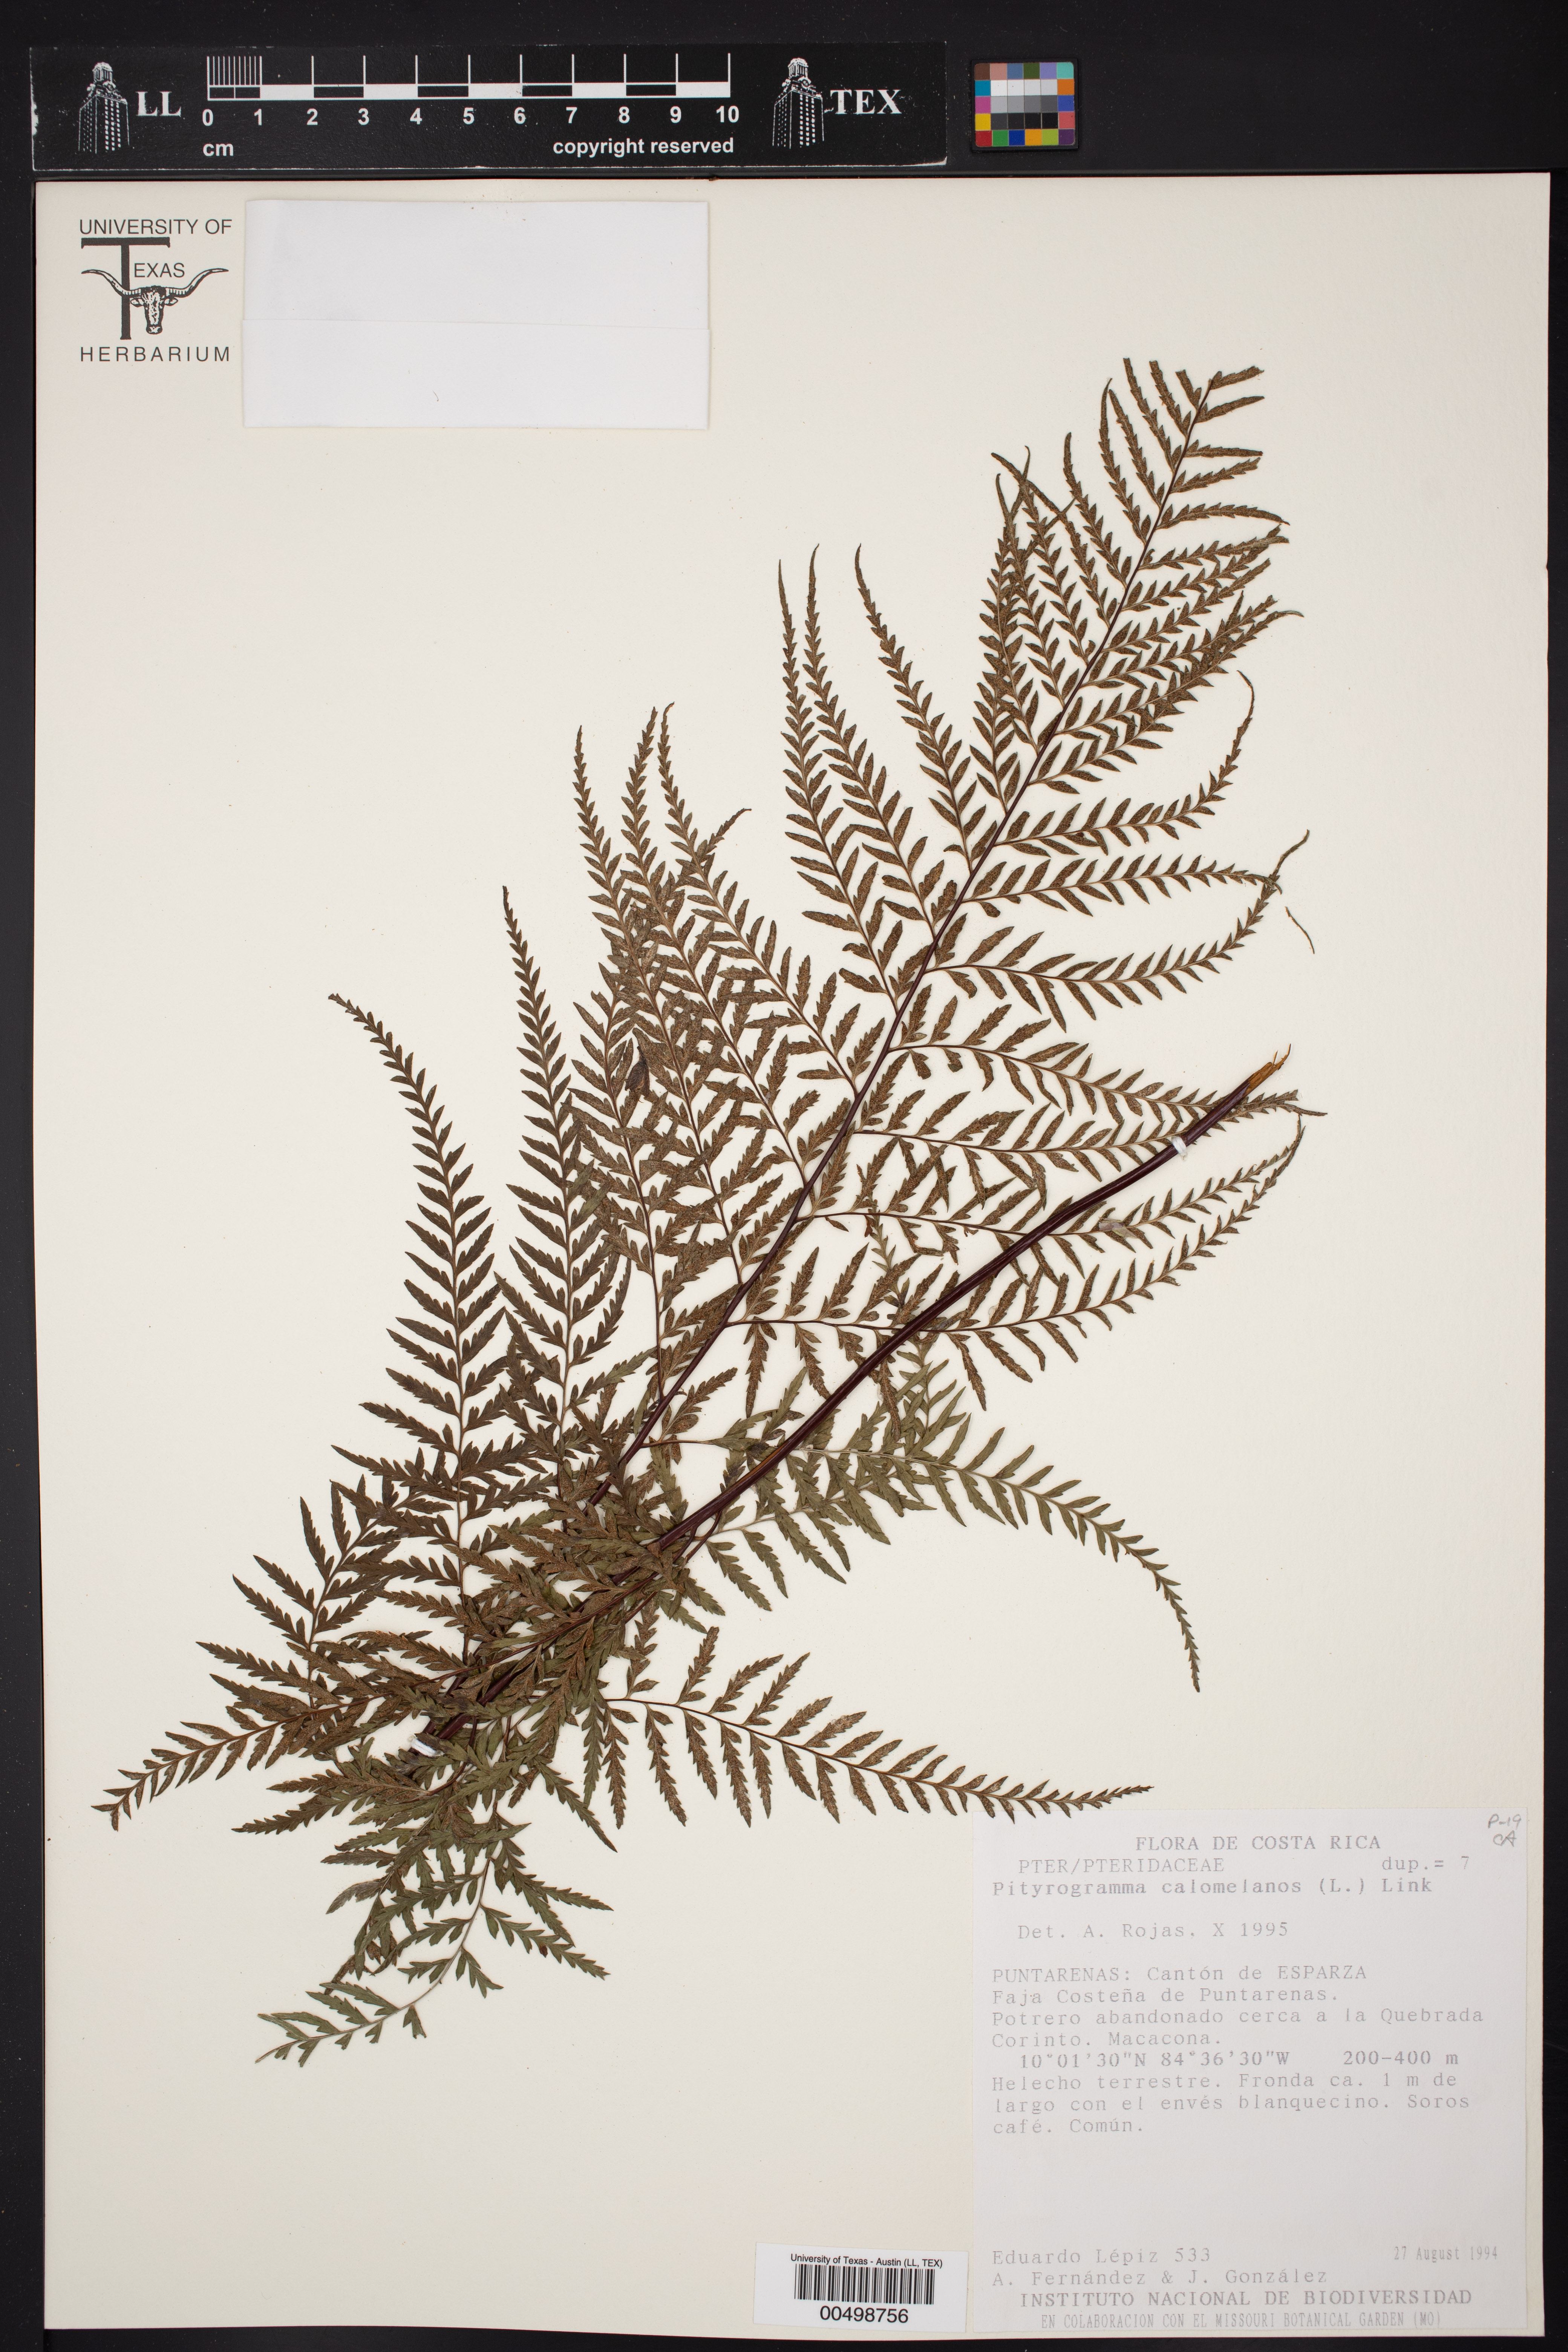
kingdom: Plantae
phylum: Tracheophyta
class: Polypodiopsida
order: Polypodiales
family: Pteridaceae
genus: Pityrogramma
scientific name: Pityrogramma calomelanos
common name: Dixie silverback fern
